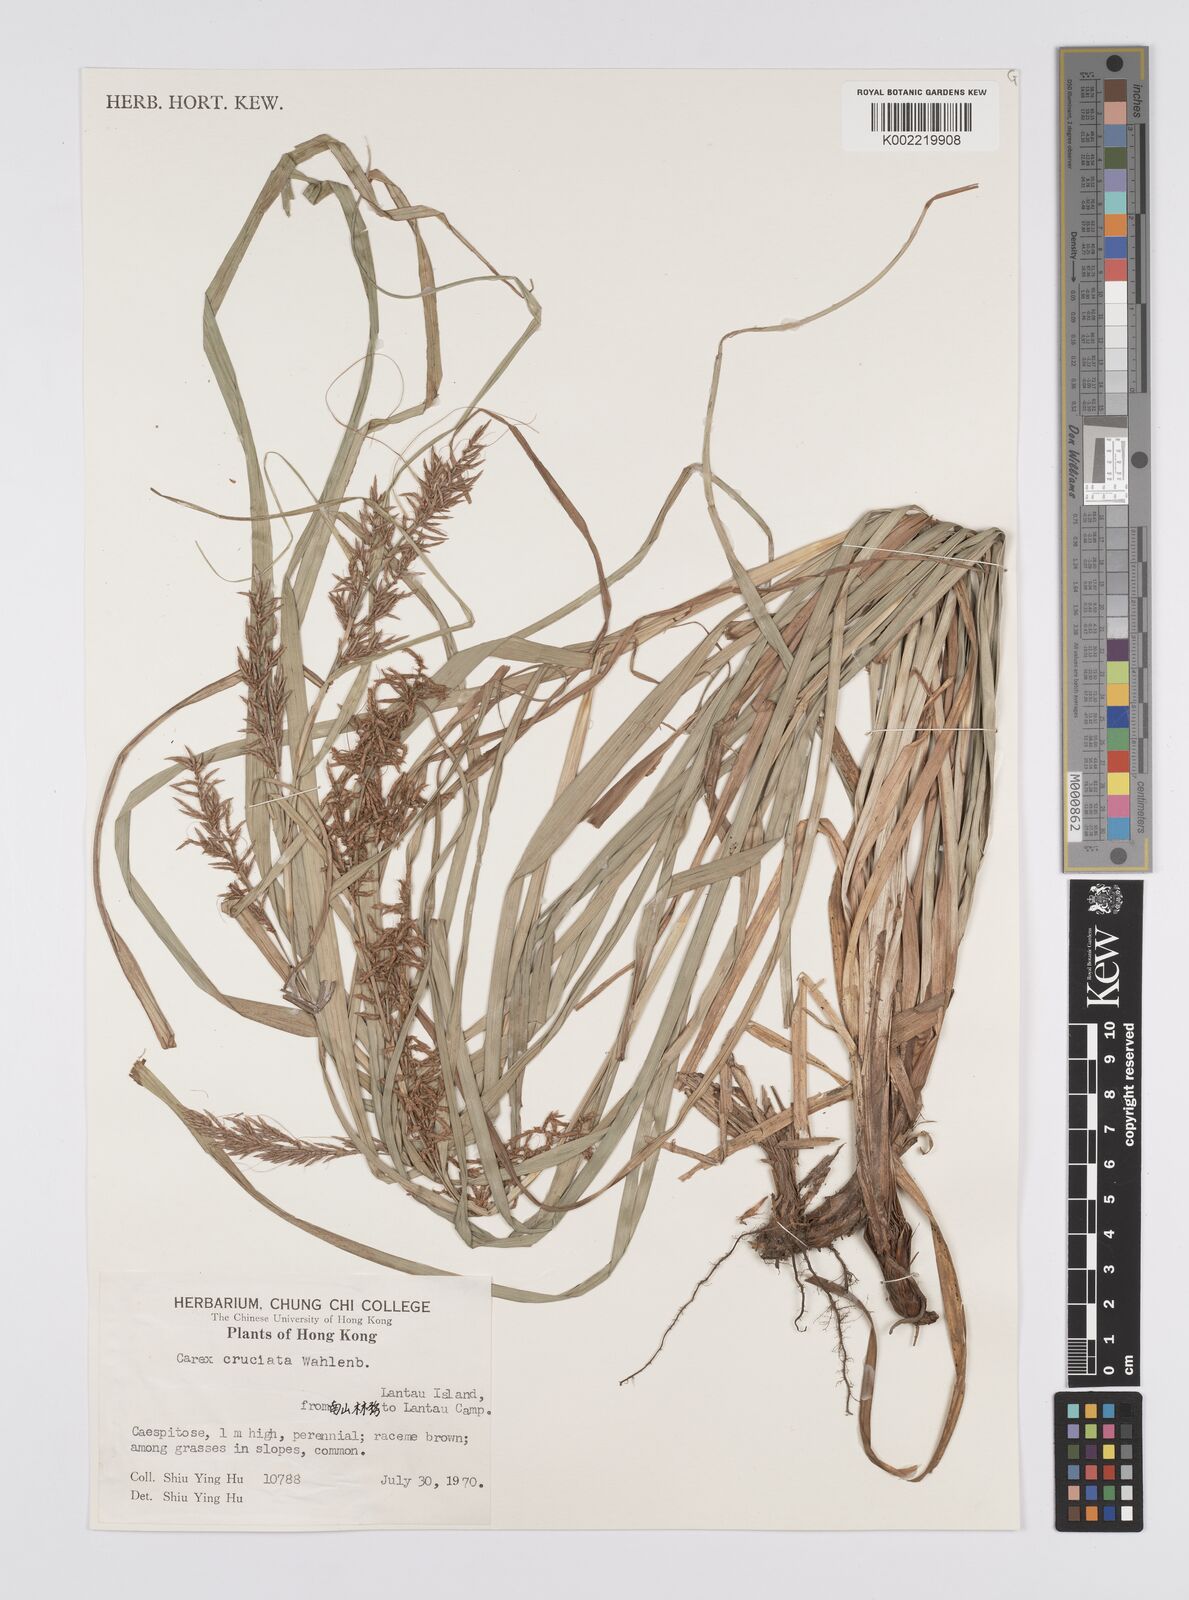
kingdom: Plantae
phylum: Tracheophyta
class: Liliopsida
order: Poales
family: Cyperaceae
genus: Carex
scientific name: Carex cruciata
